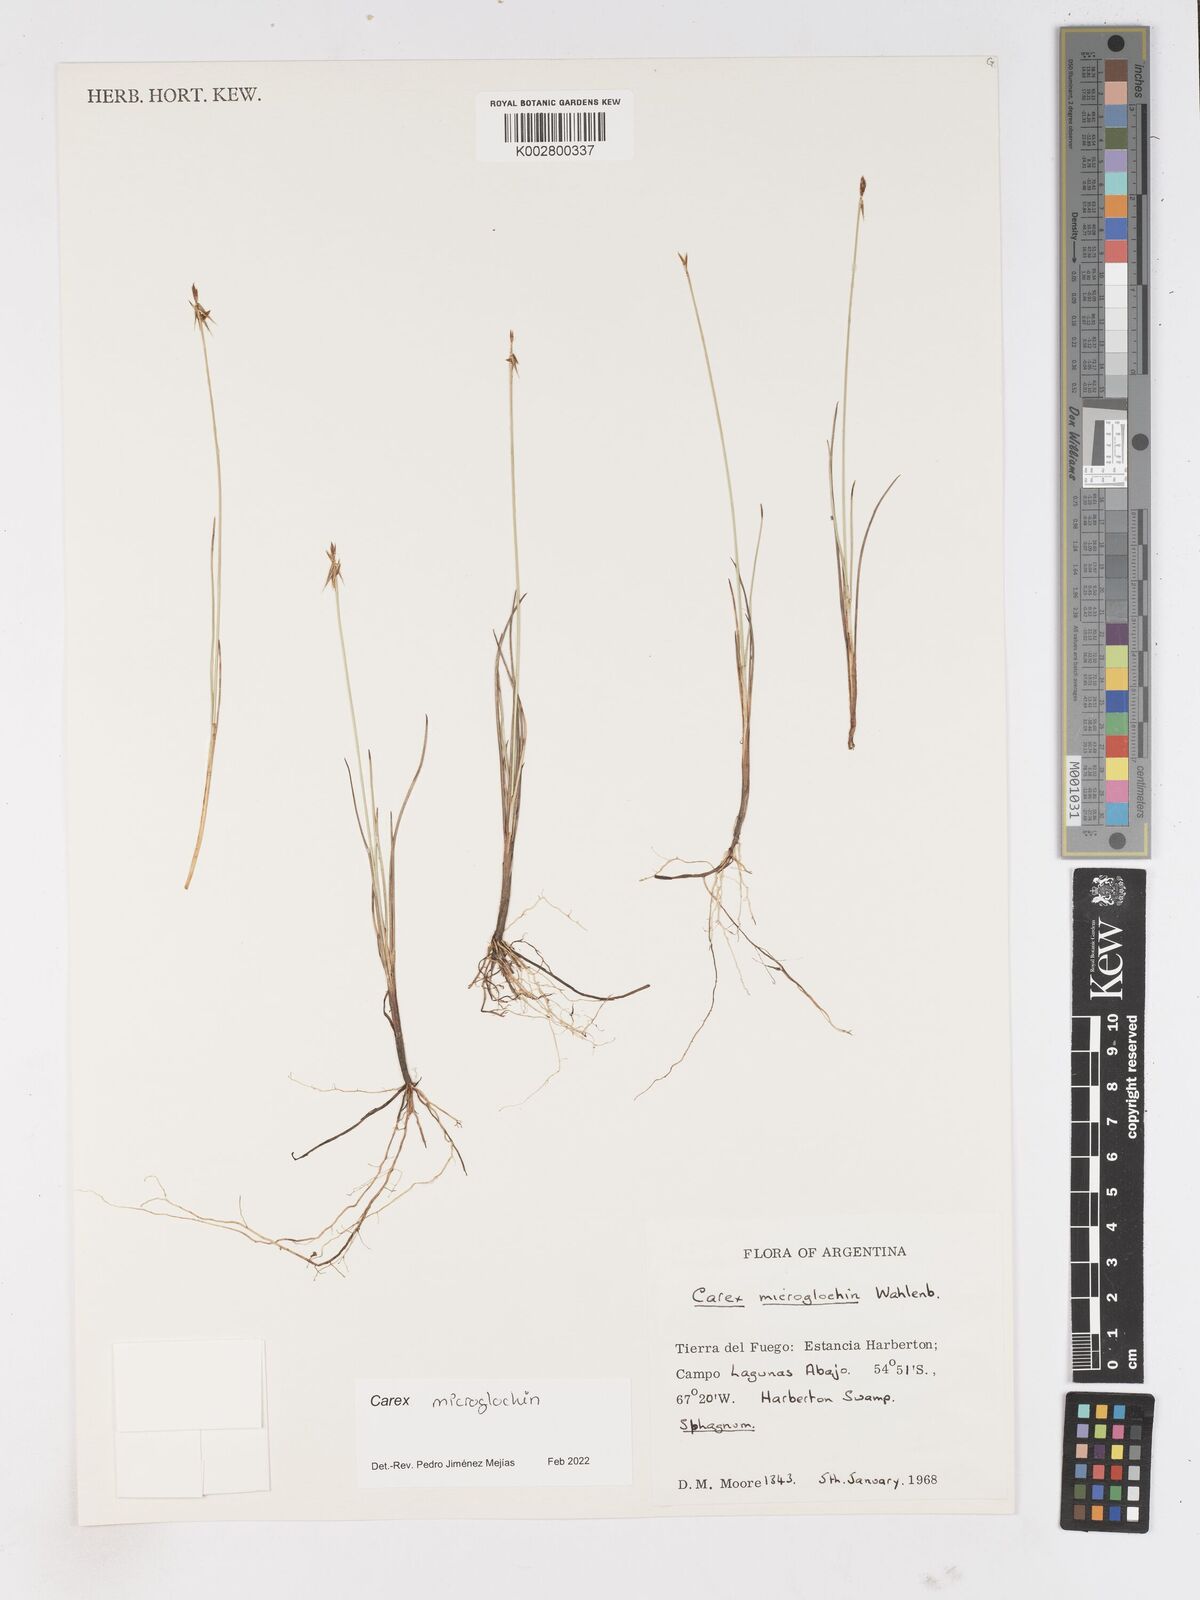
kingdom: Plantae
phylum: Tracheophyta
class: Liliopsida
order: Poales
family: Cyperaceae
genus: Carex
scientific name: Carex microglochin
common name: Bristle sedge
